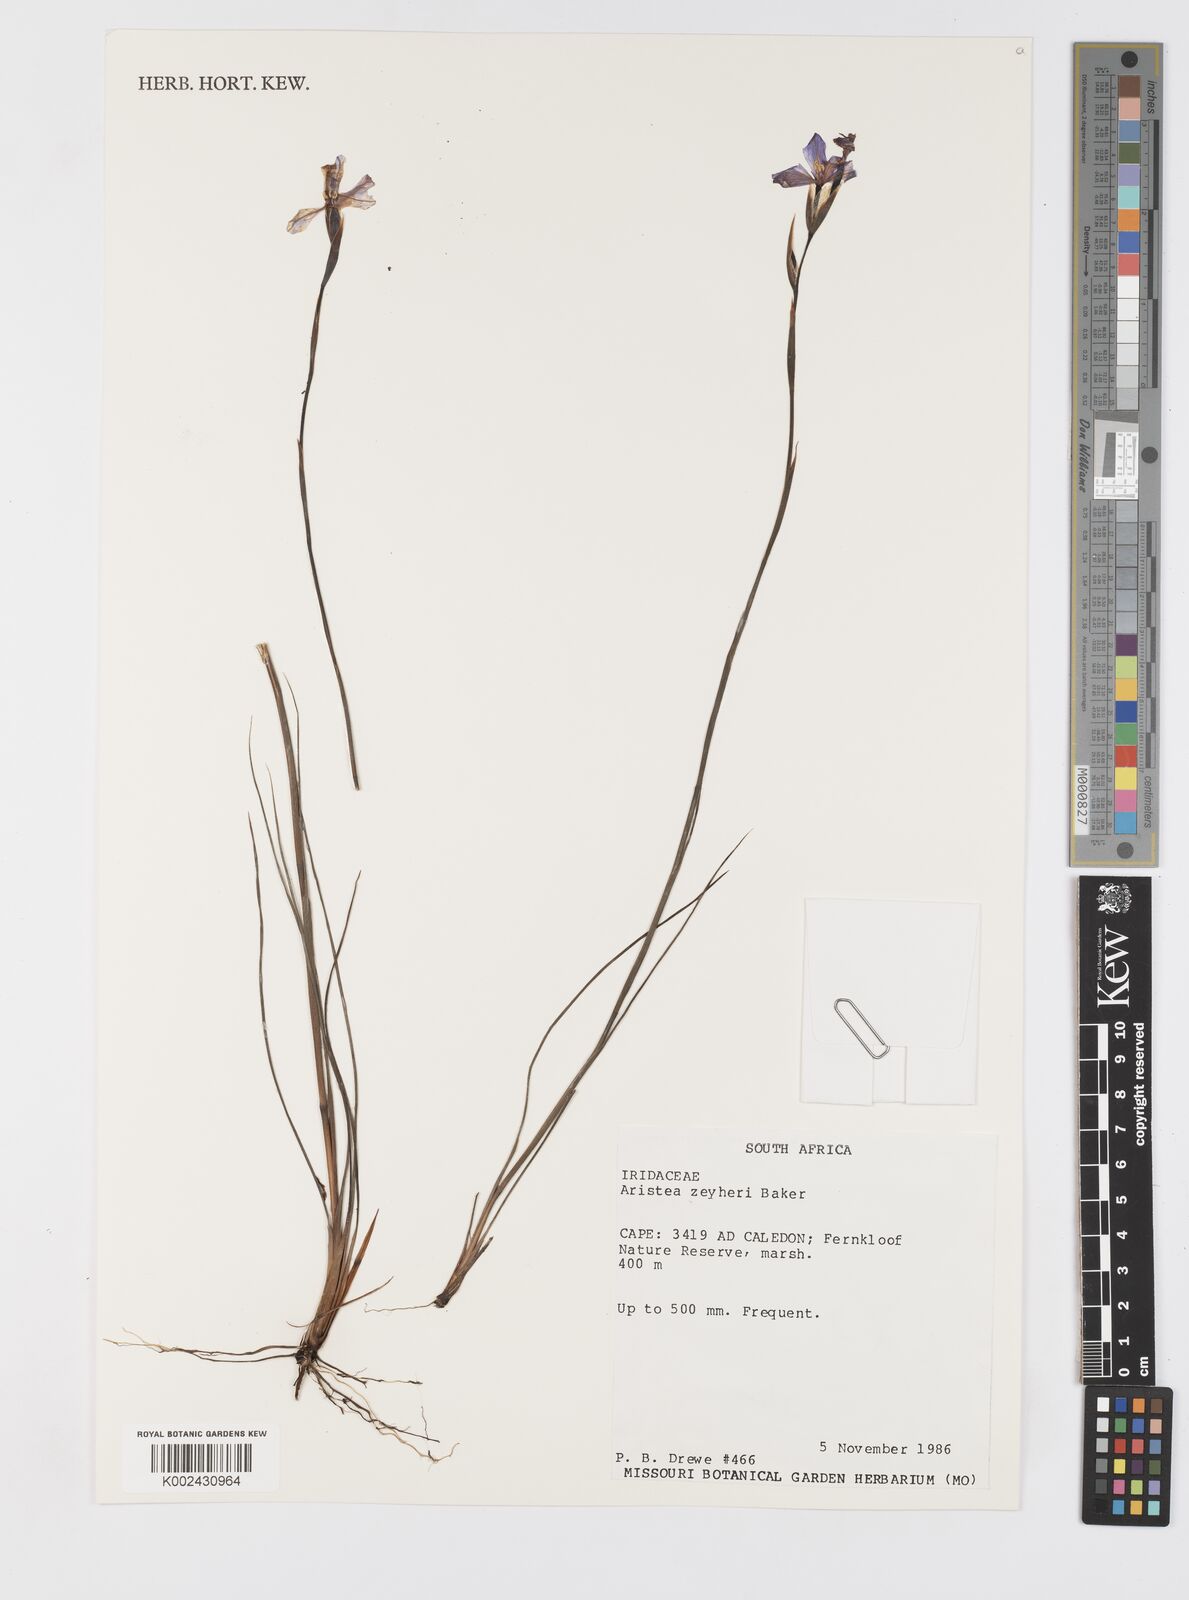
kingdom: Plantae
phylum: Tracheophyta
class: Liliopsida
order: Asparagales
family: Iridaceae
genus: Aristea
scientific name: Aristea zeyheri
